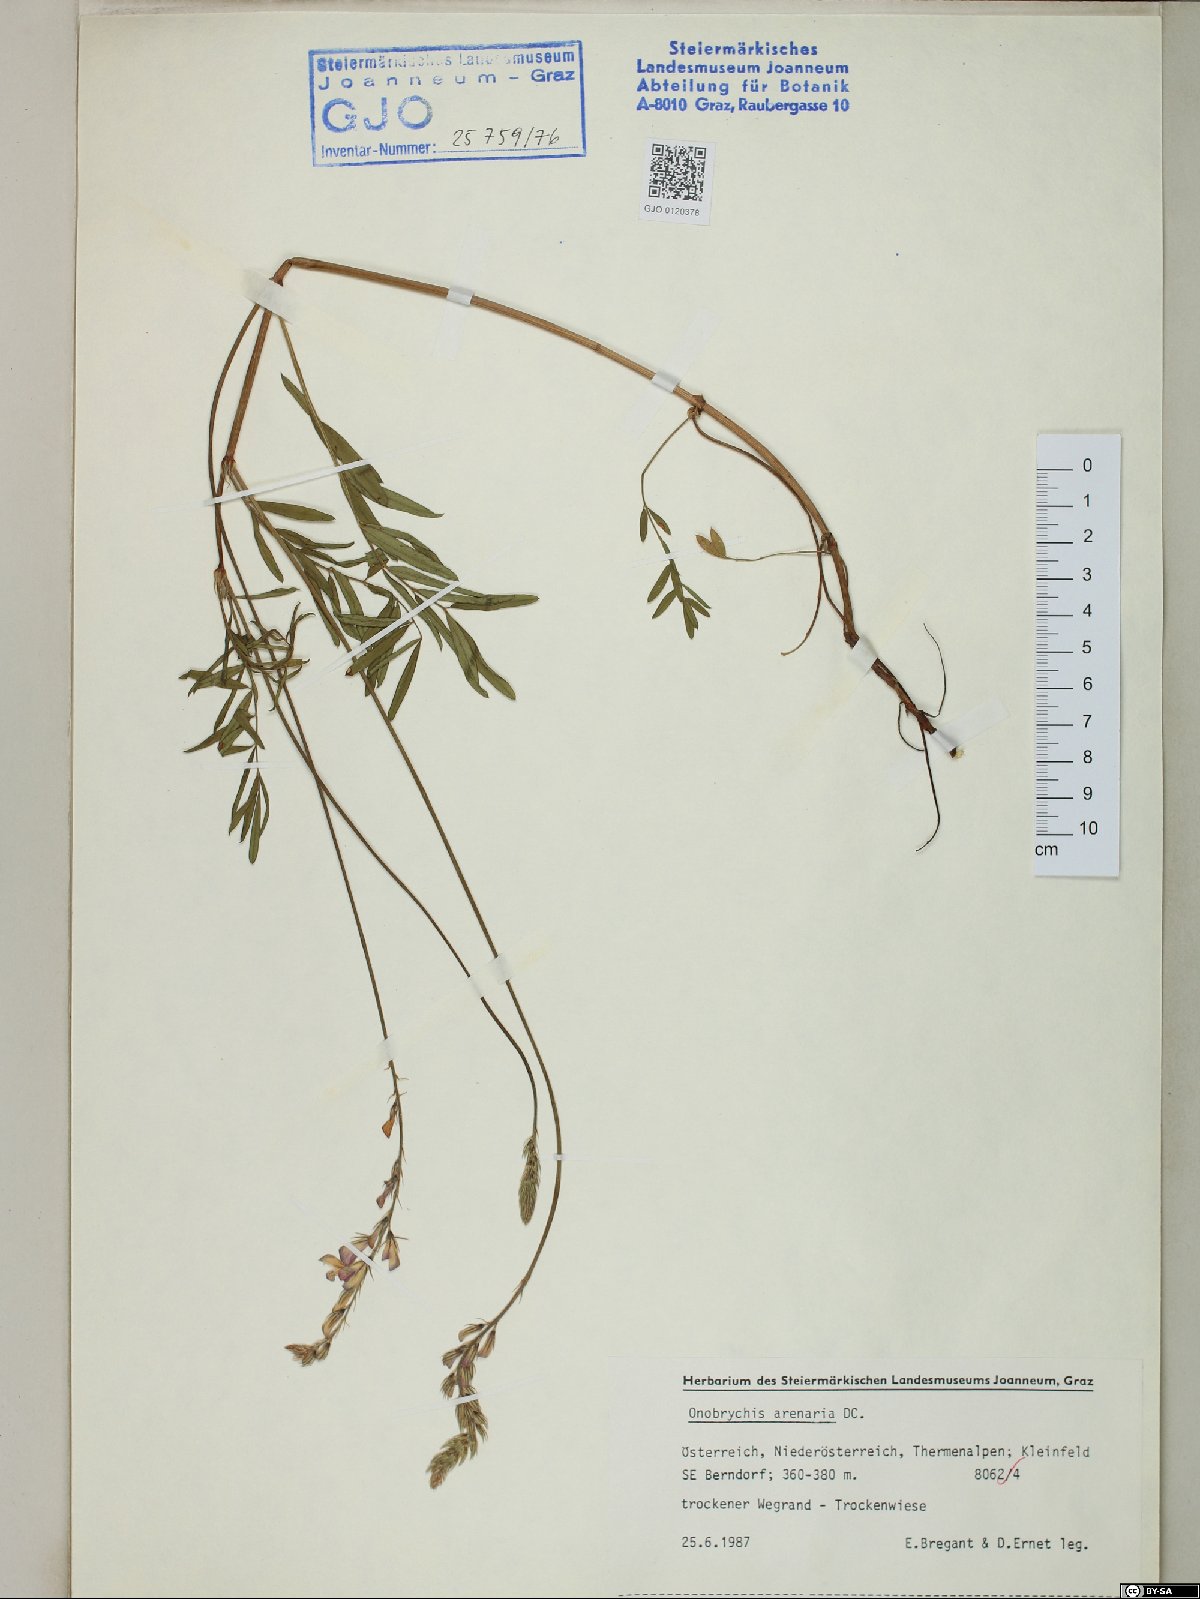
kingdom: Plantae
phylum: Tracheophyta
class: Magnoliopsida
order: Fabales
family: Fabaceae
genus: Onobrychis
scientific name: Onobrychis arenaria
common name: Sand esparcet
